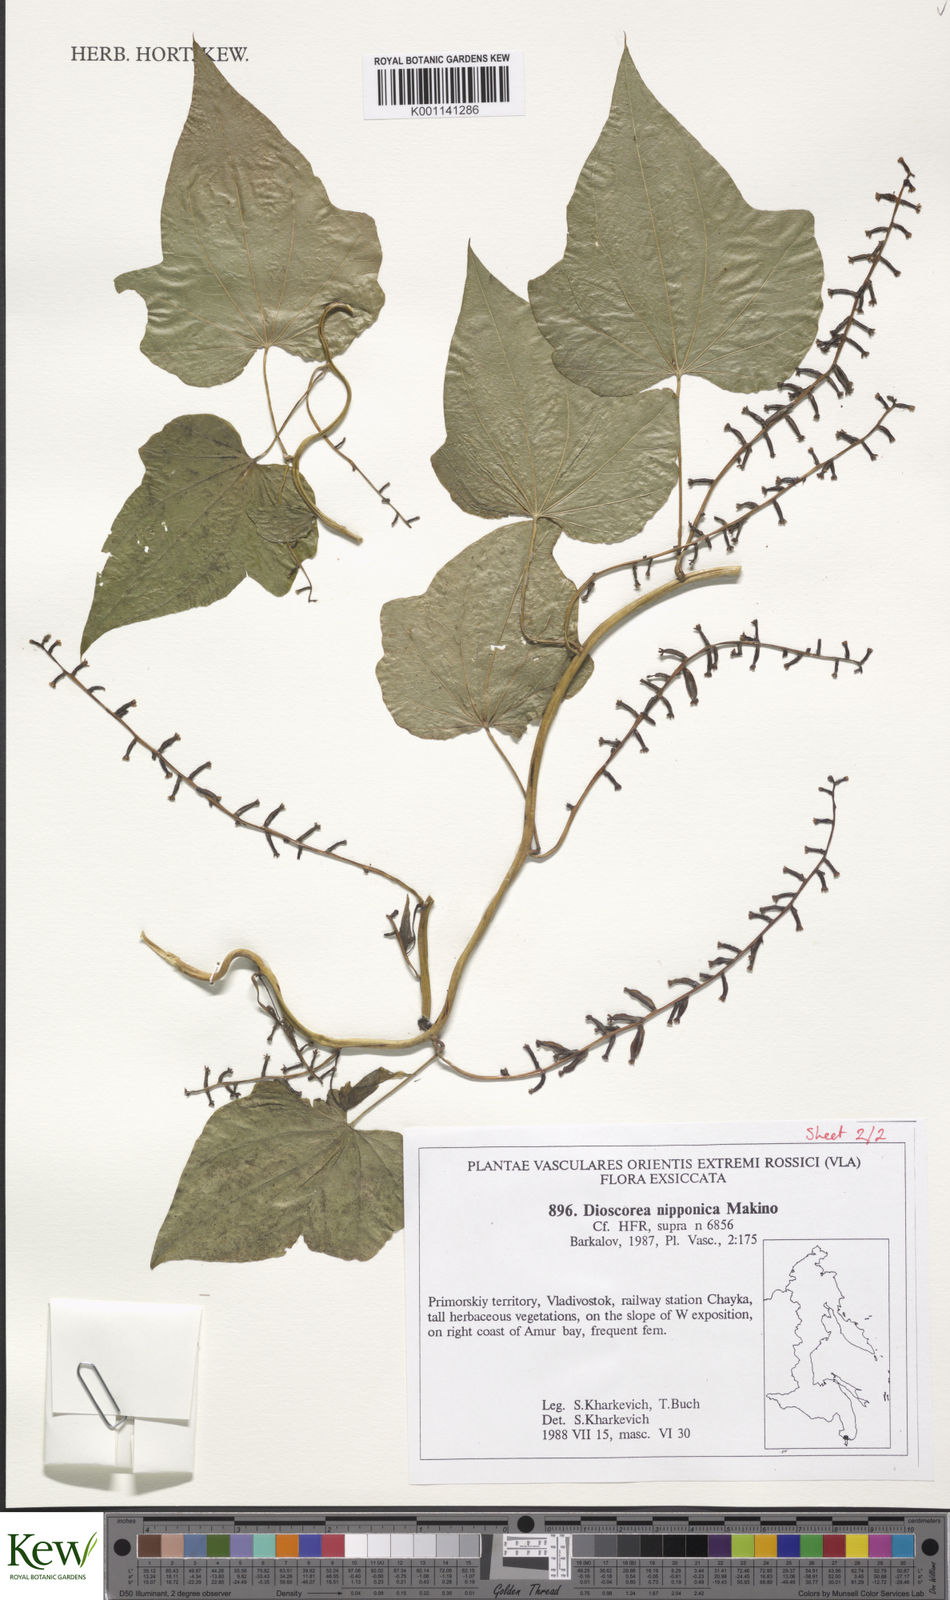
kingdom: Plantae
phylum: Tracheophyta
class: Liliopsida
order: Dioscoreales
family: Dioscoreaceae
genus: Dioscorea
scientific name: Dioscorea nipponica
